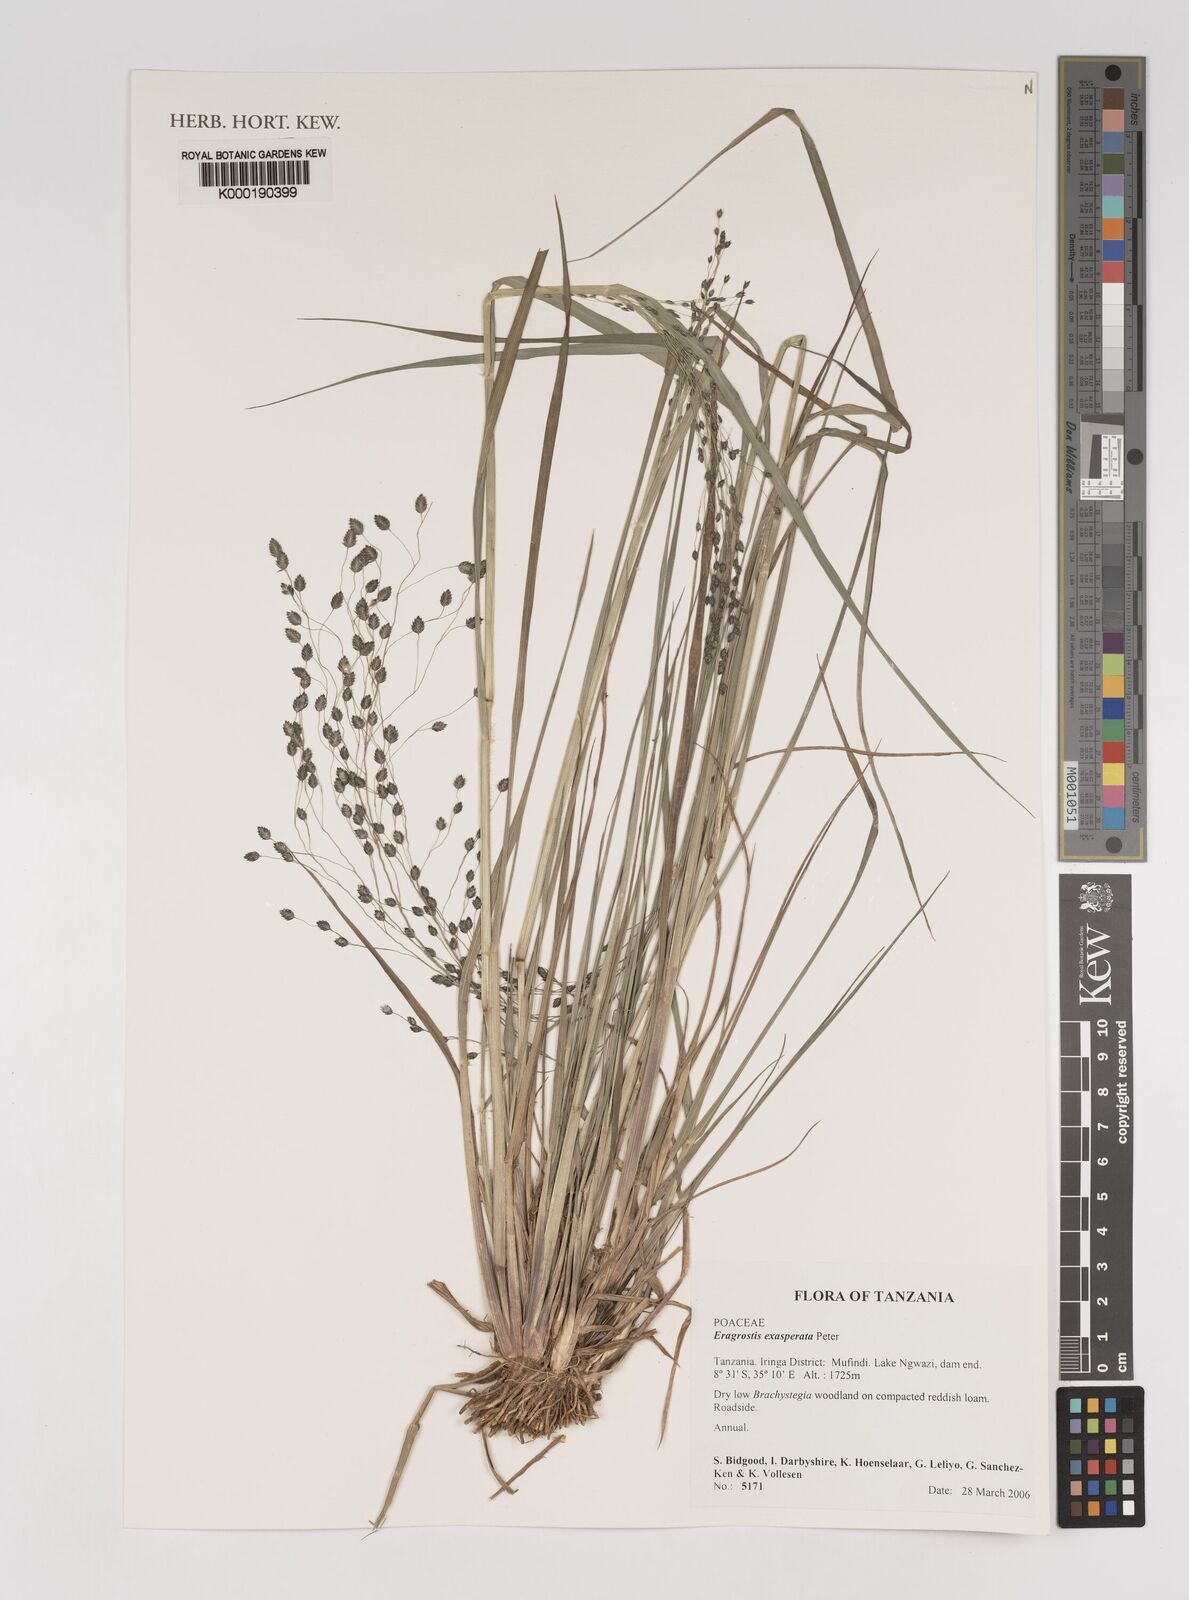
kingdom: Plantae
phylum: Tracheophyta
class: Liliopsida
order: Poales
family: Poaceae
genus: Eragrostis
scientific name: Eragrostis exasperata
